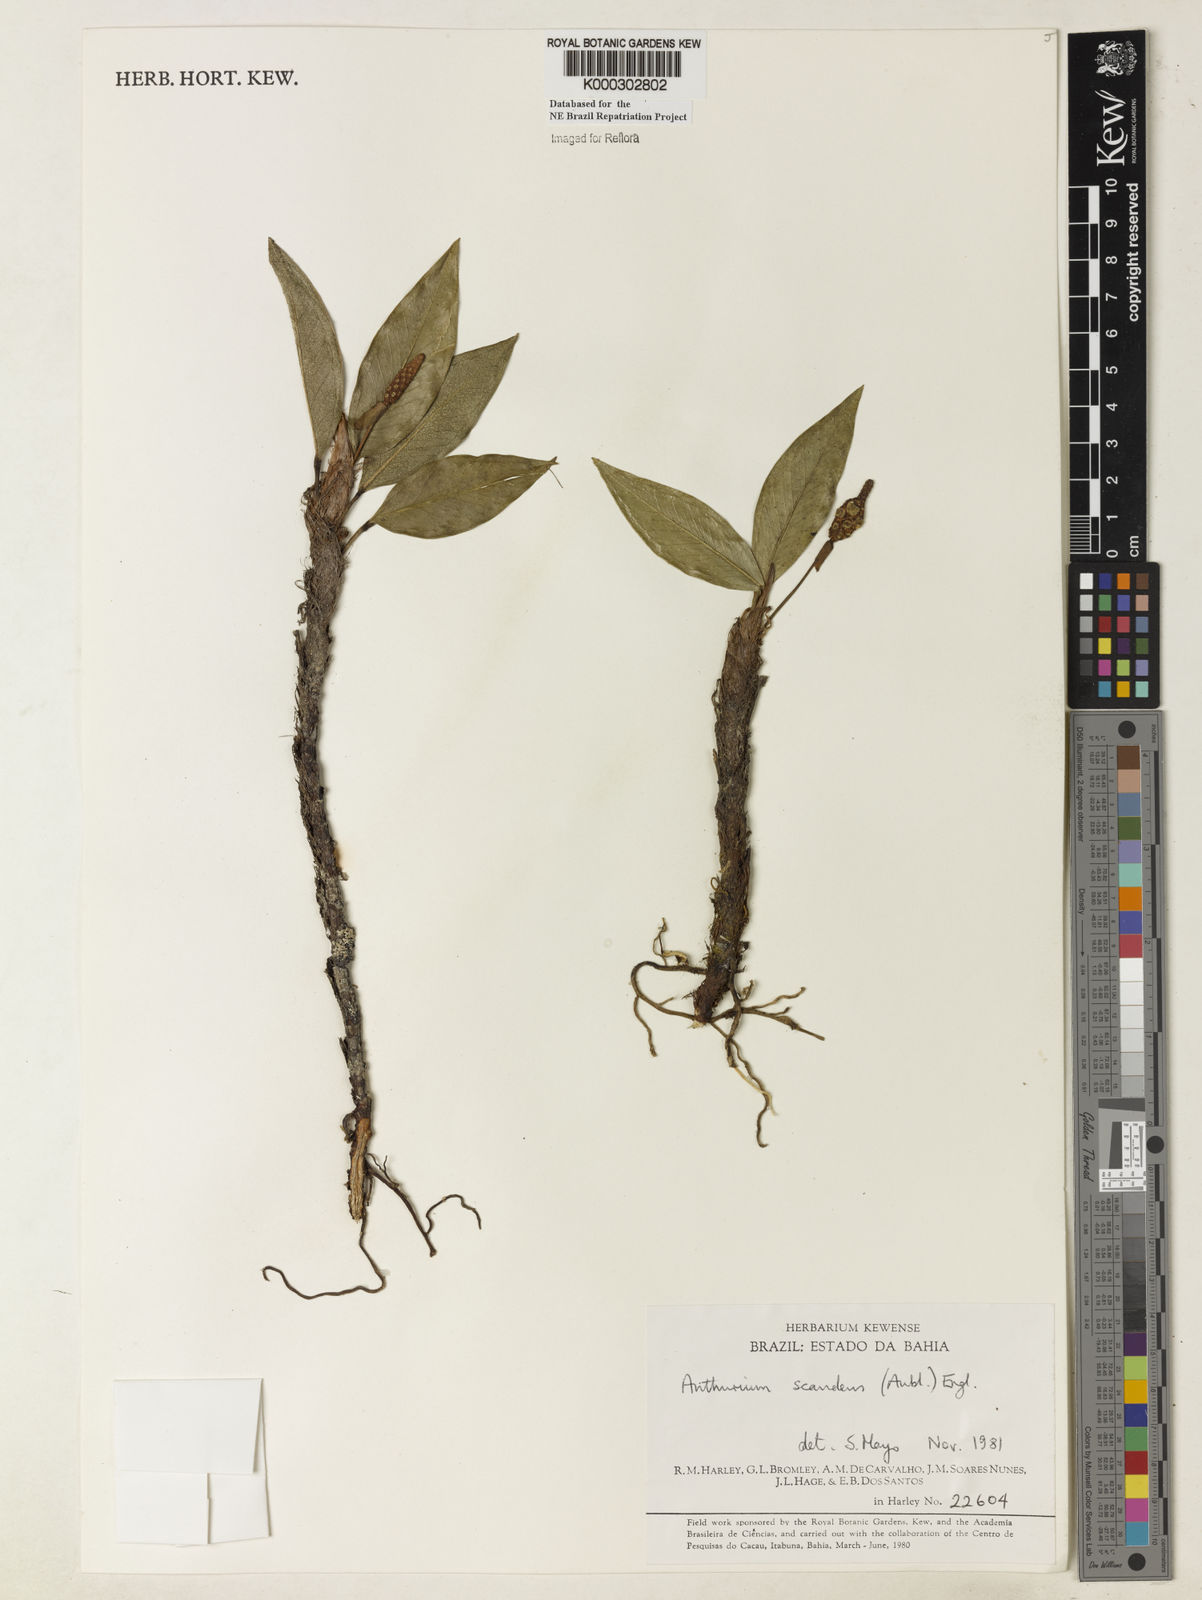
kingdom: Plantae
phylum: Tracheophyta
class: Liliopsida
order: Alismatales
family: Araceae
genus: Anthurium
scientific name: Anthurium scandens
